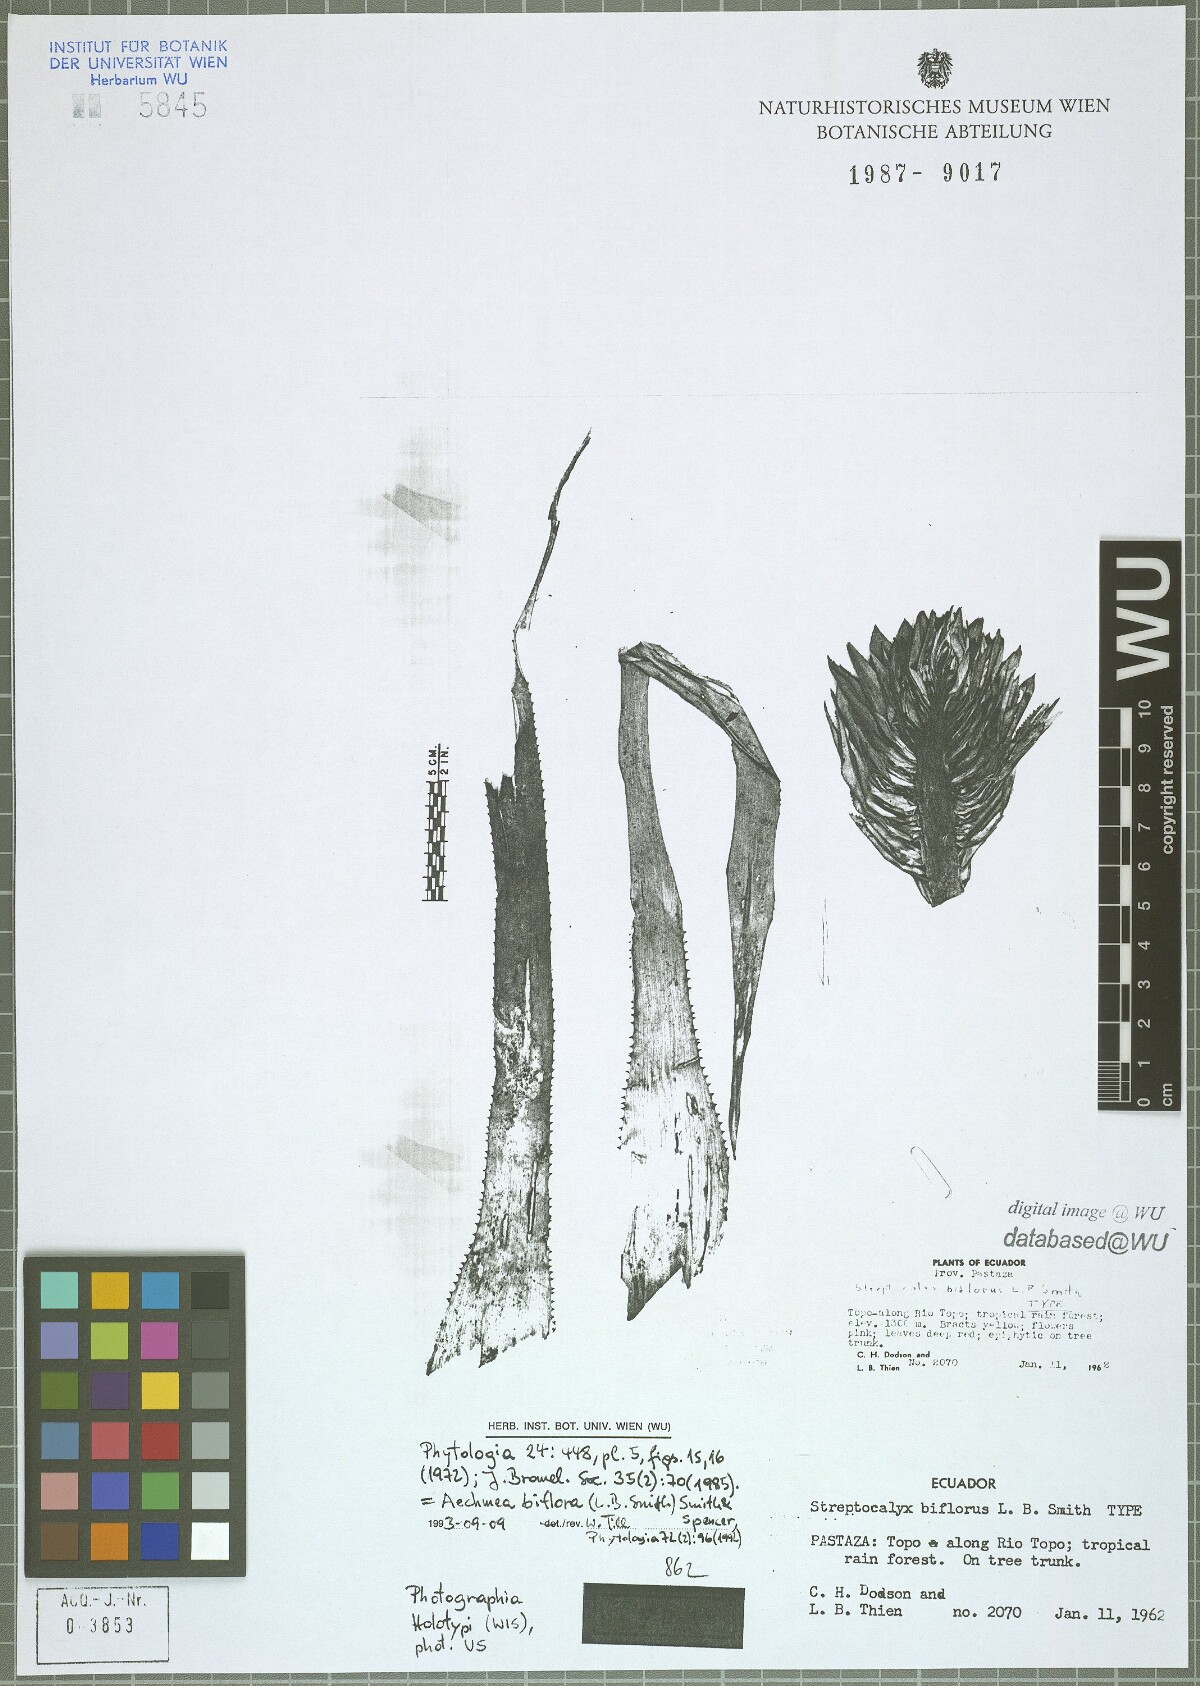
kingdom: Plantae
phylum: Tracheophyta
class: Liliopsida
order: Poales
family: Bromeliaceae
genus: Aechmea
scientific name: Aechmea biflora
